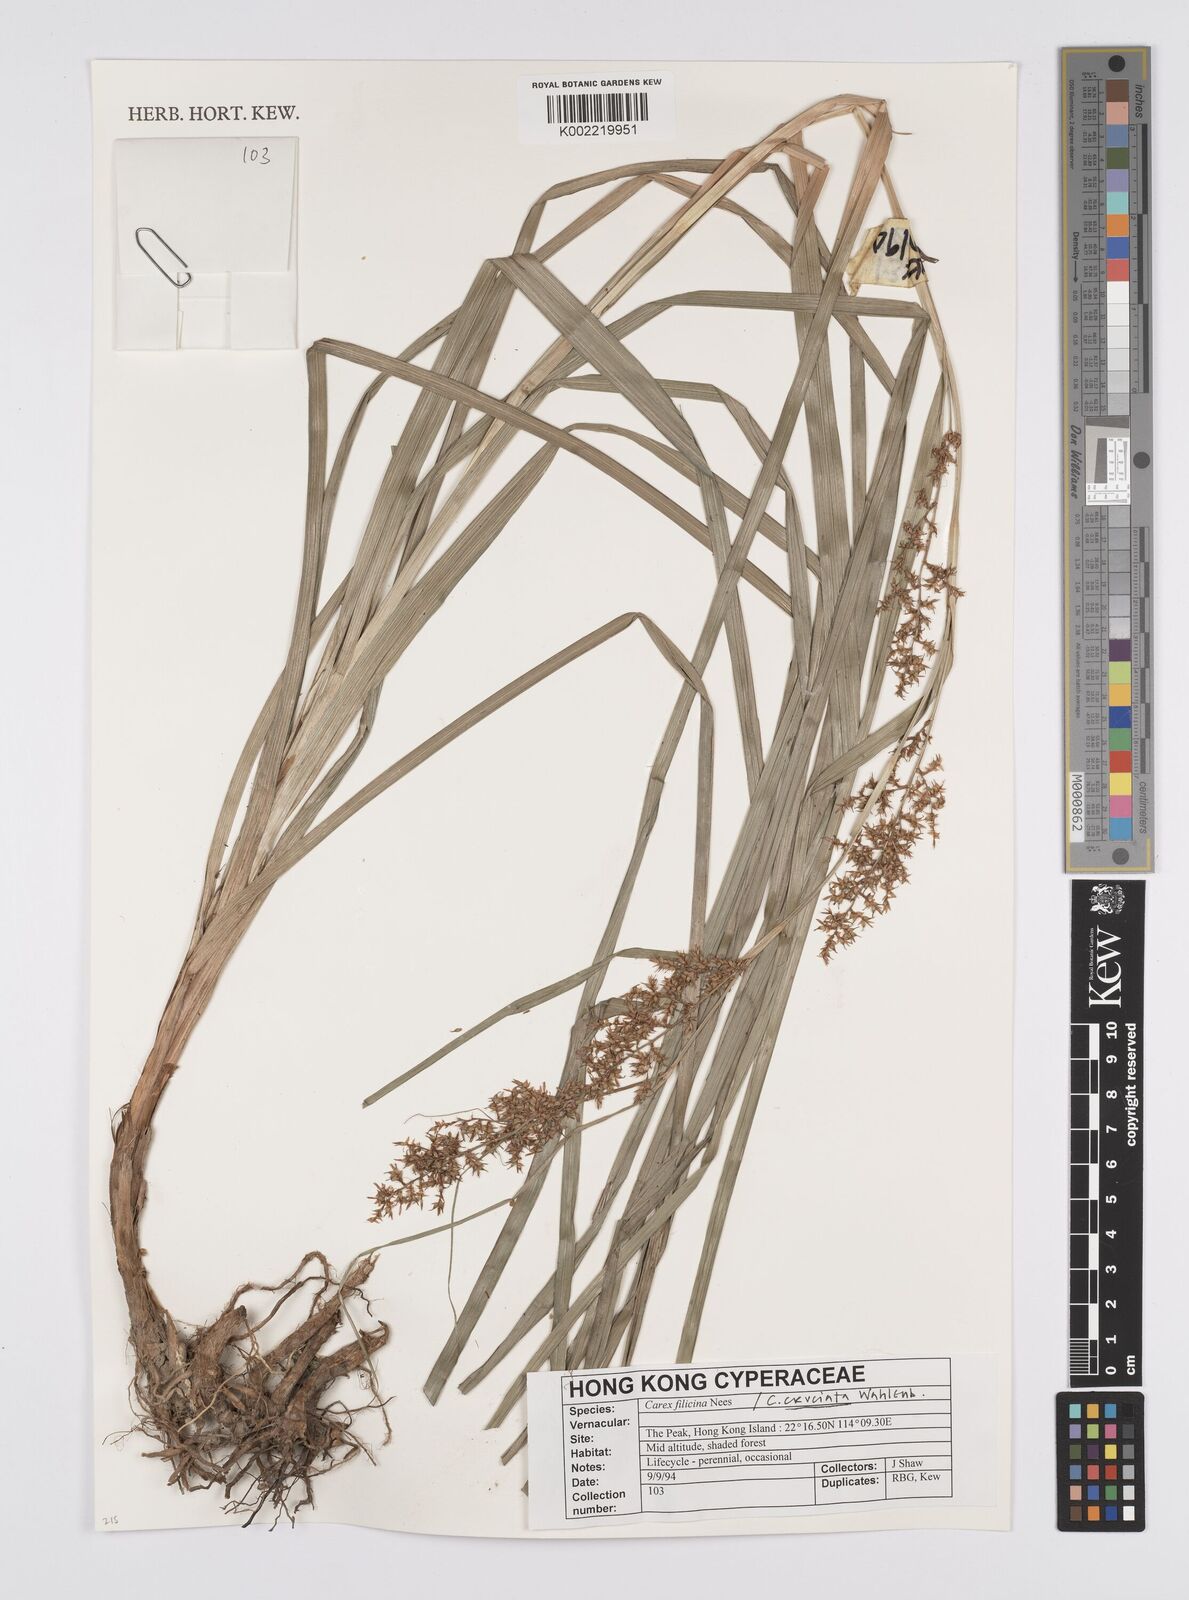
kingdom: Plantae
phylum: Tracheophyta
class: Liliopsida
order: Poales
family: Cyperaceae
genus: Carex
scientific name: Carex cruciata
